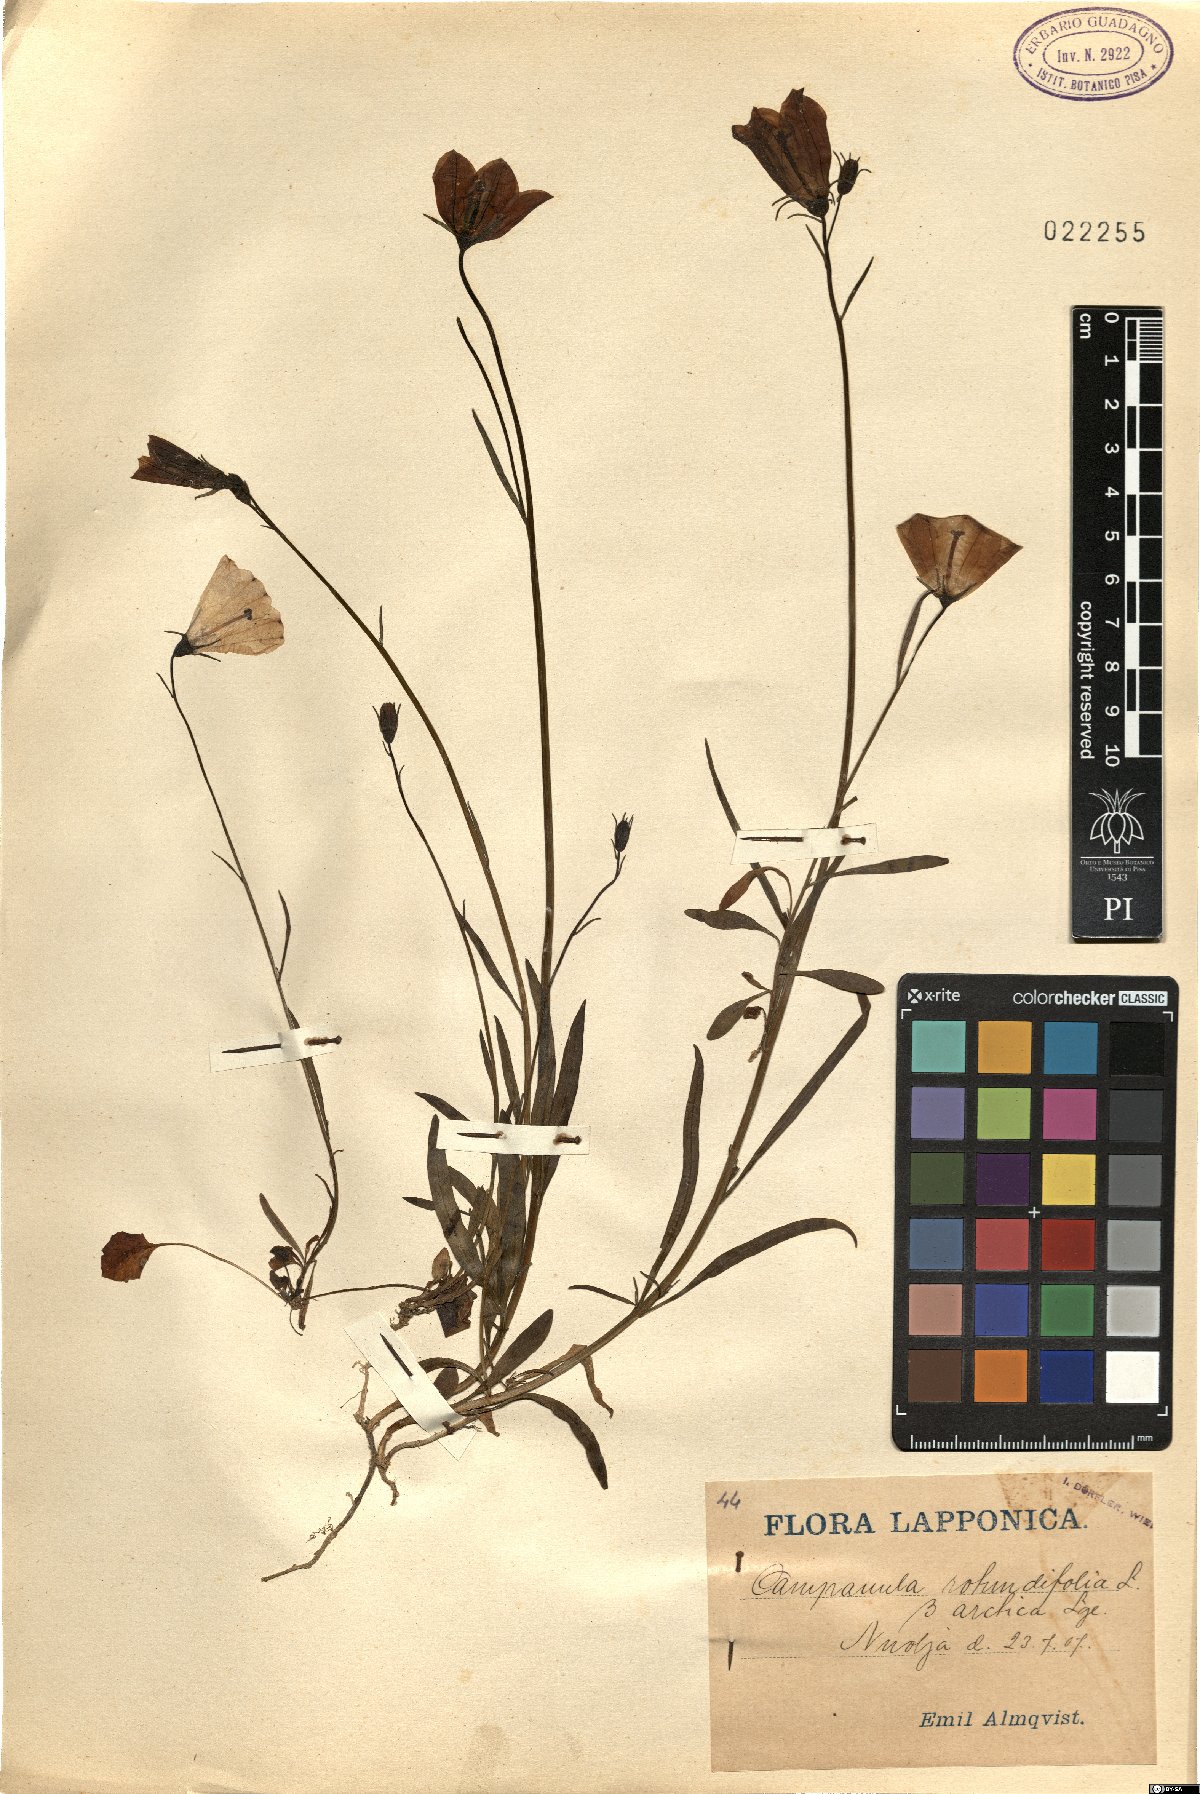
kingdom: Plantae
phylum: Tracheophyta
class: Magnoliopsida
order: Asterales
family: Campanulaceae
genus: Campanula
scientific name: Campanula giesekiana
